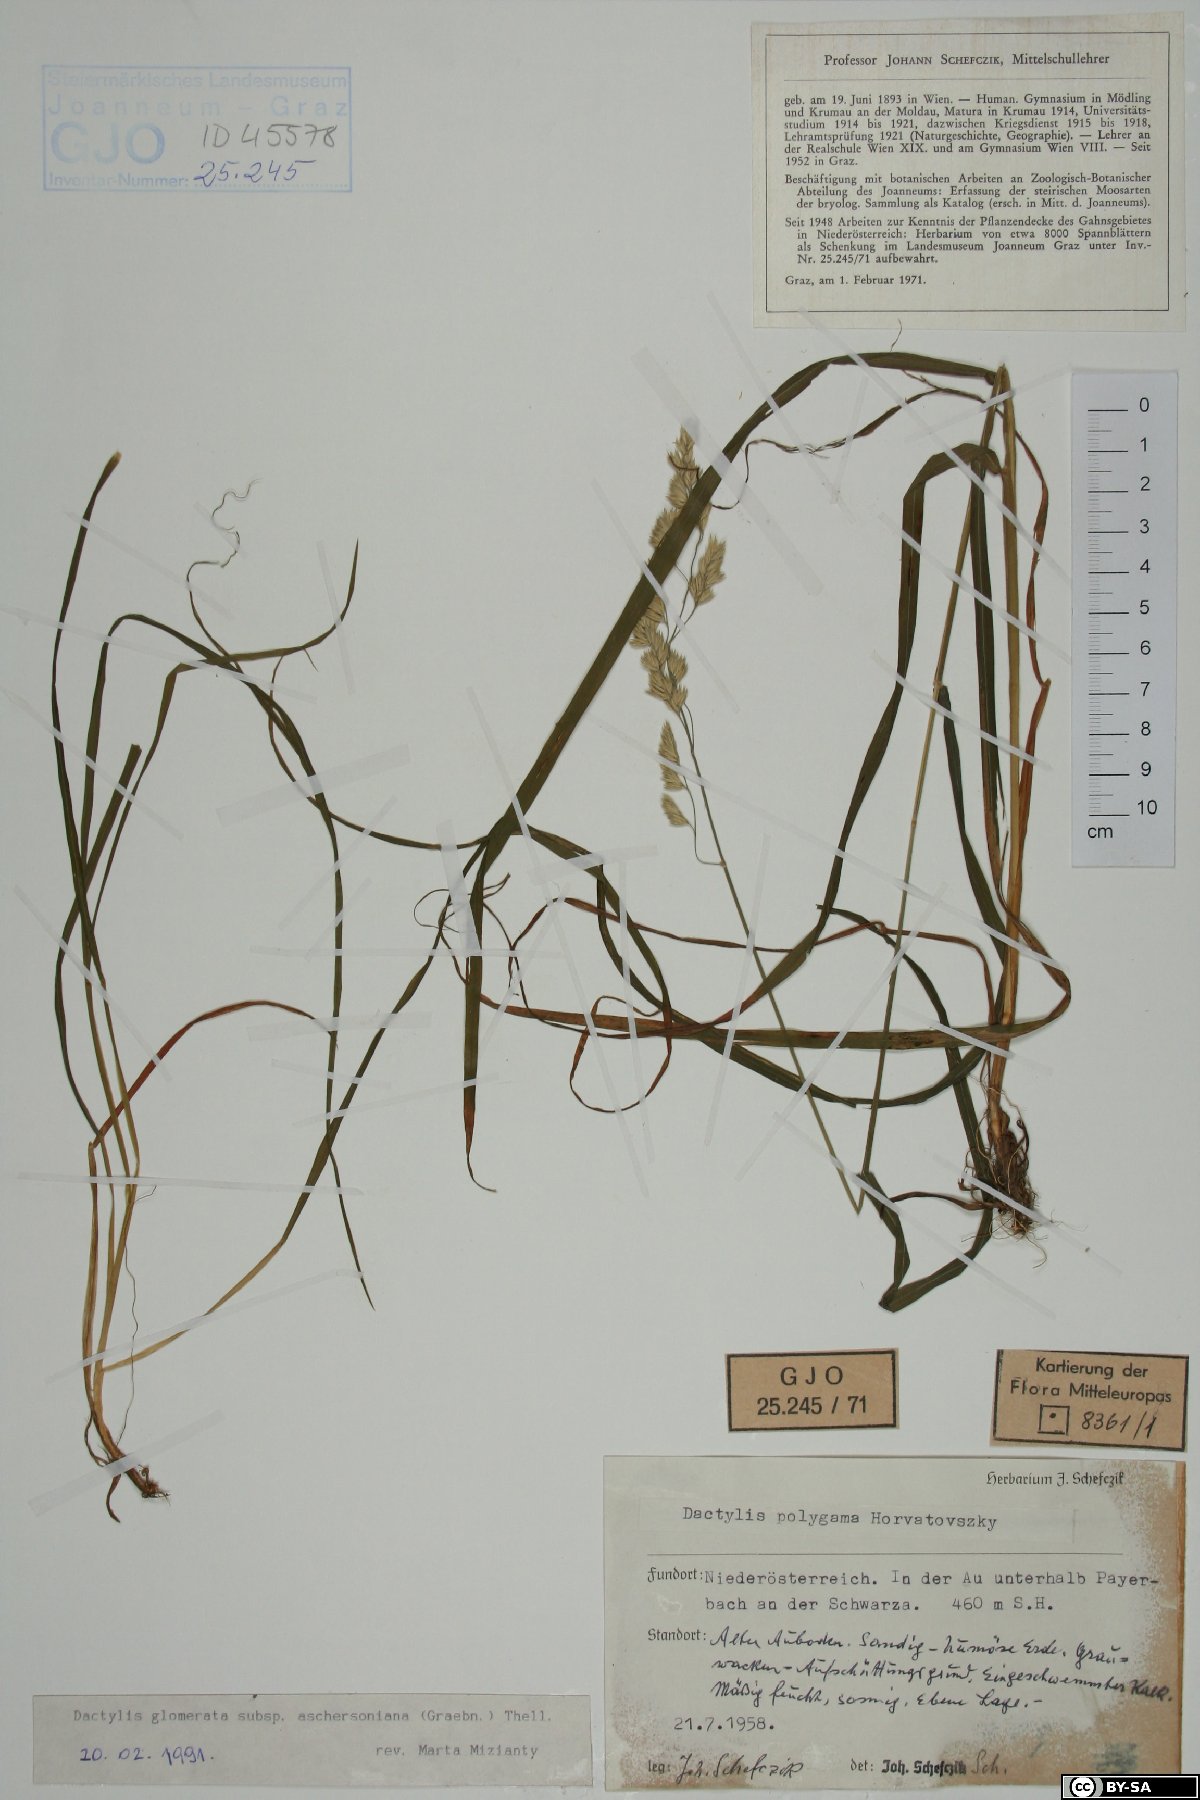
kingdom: Plantae
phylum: Tracheophyta
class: Liliopsida
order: Poales
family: Poaceae
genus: Dactylis
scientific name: Dactylis glomerata
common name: Orchardgrass
